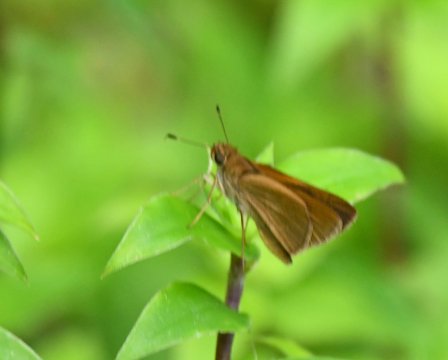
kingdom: Animalia
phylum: Arthropoda
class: Insecta
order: Lepidoptera
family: Hesperiidae
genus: Atrytone
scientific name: Atrytone
